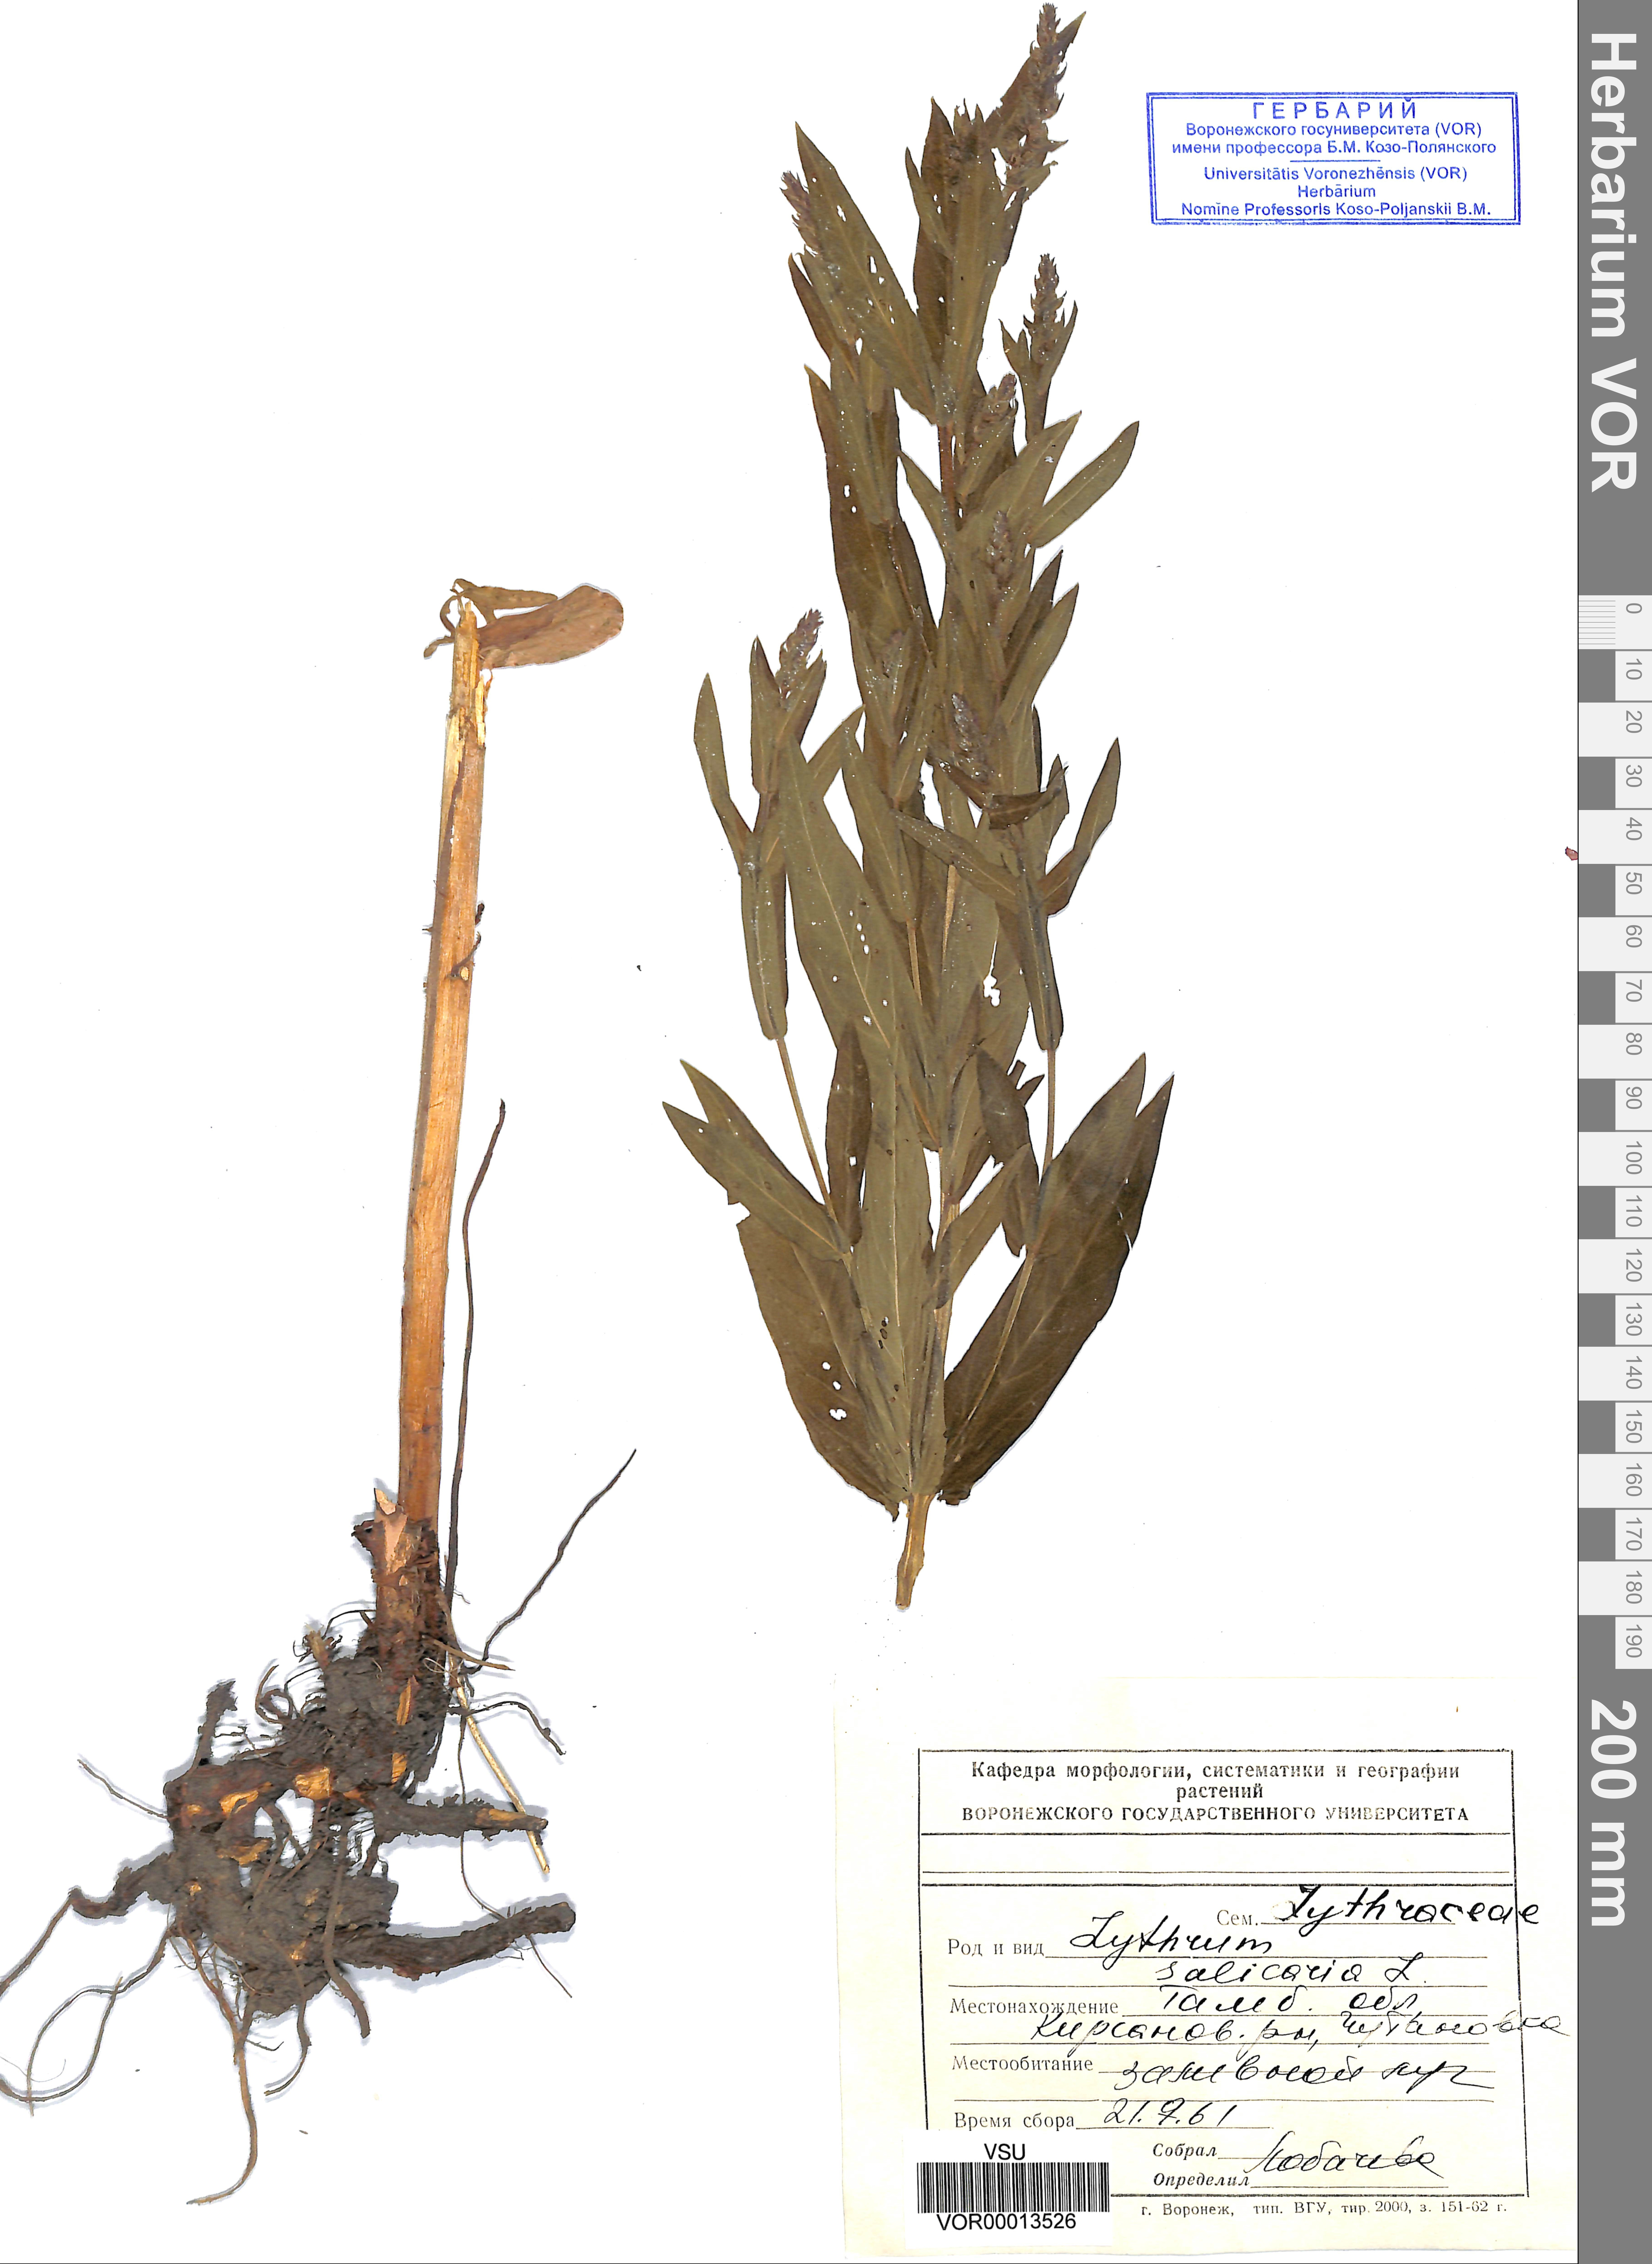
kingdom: Plantae
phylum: Tracheophyta
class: Magnoliopsida
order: Myrtales
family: Lythraceae
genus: Lythrum
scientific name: Lythrum salicaria
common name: Purple loosestrife
